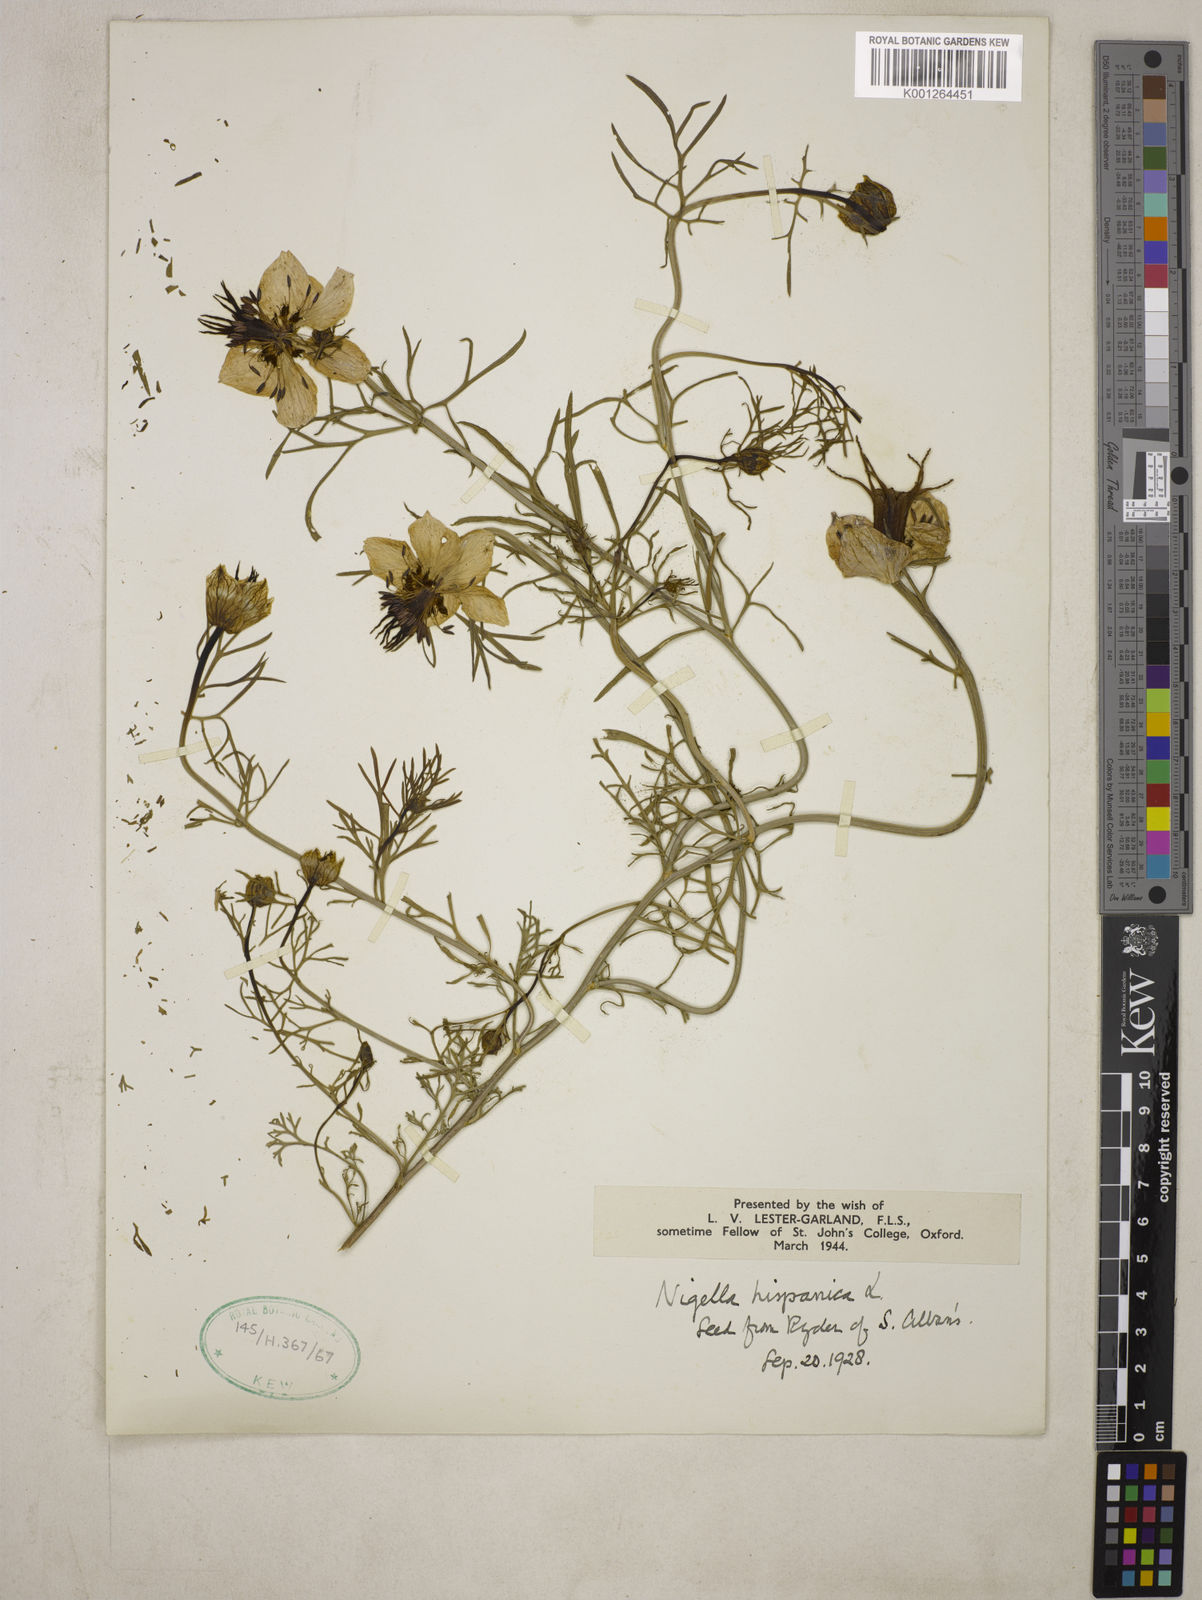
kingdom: Plantae
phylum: Tracheophyta
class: Magnoliopsida
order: Ranunculales
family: Ranunculaceae
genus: Nigella
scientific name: Nigella hispanica
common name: Fennel-flower
